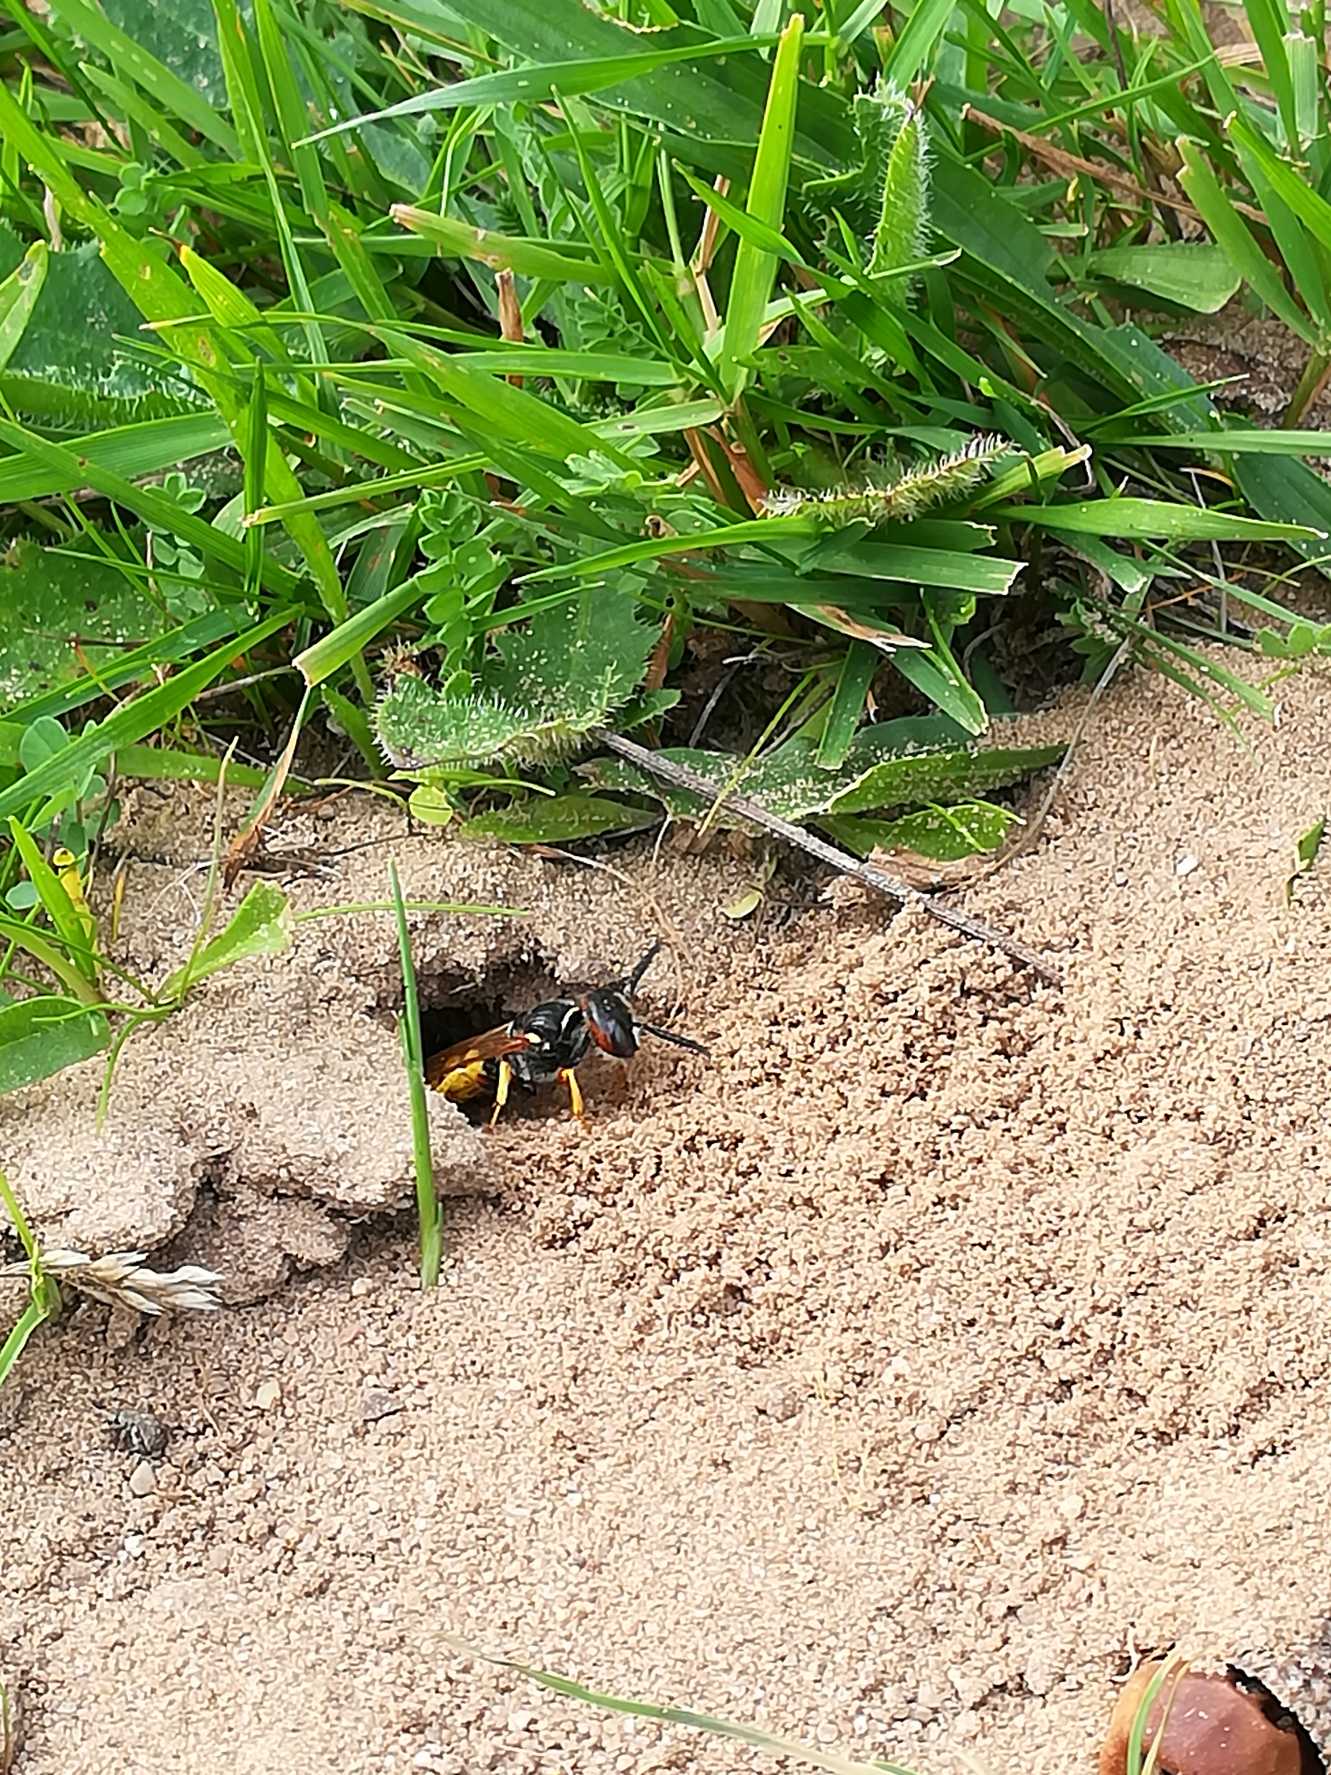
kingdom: Animalia
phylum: Arthropoda
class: Insecta
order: Hymenoptera
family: Crabronidae
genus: Philanthus
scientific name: Philanthus triangulum
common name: Biulv
